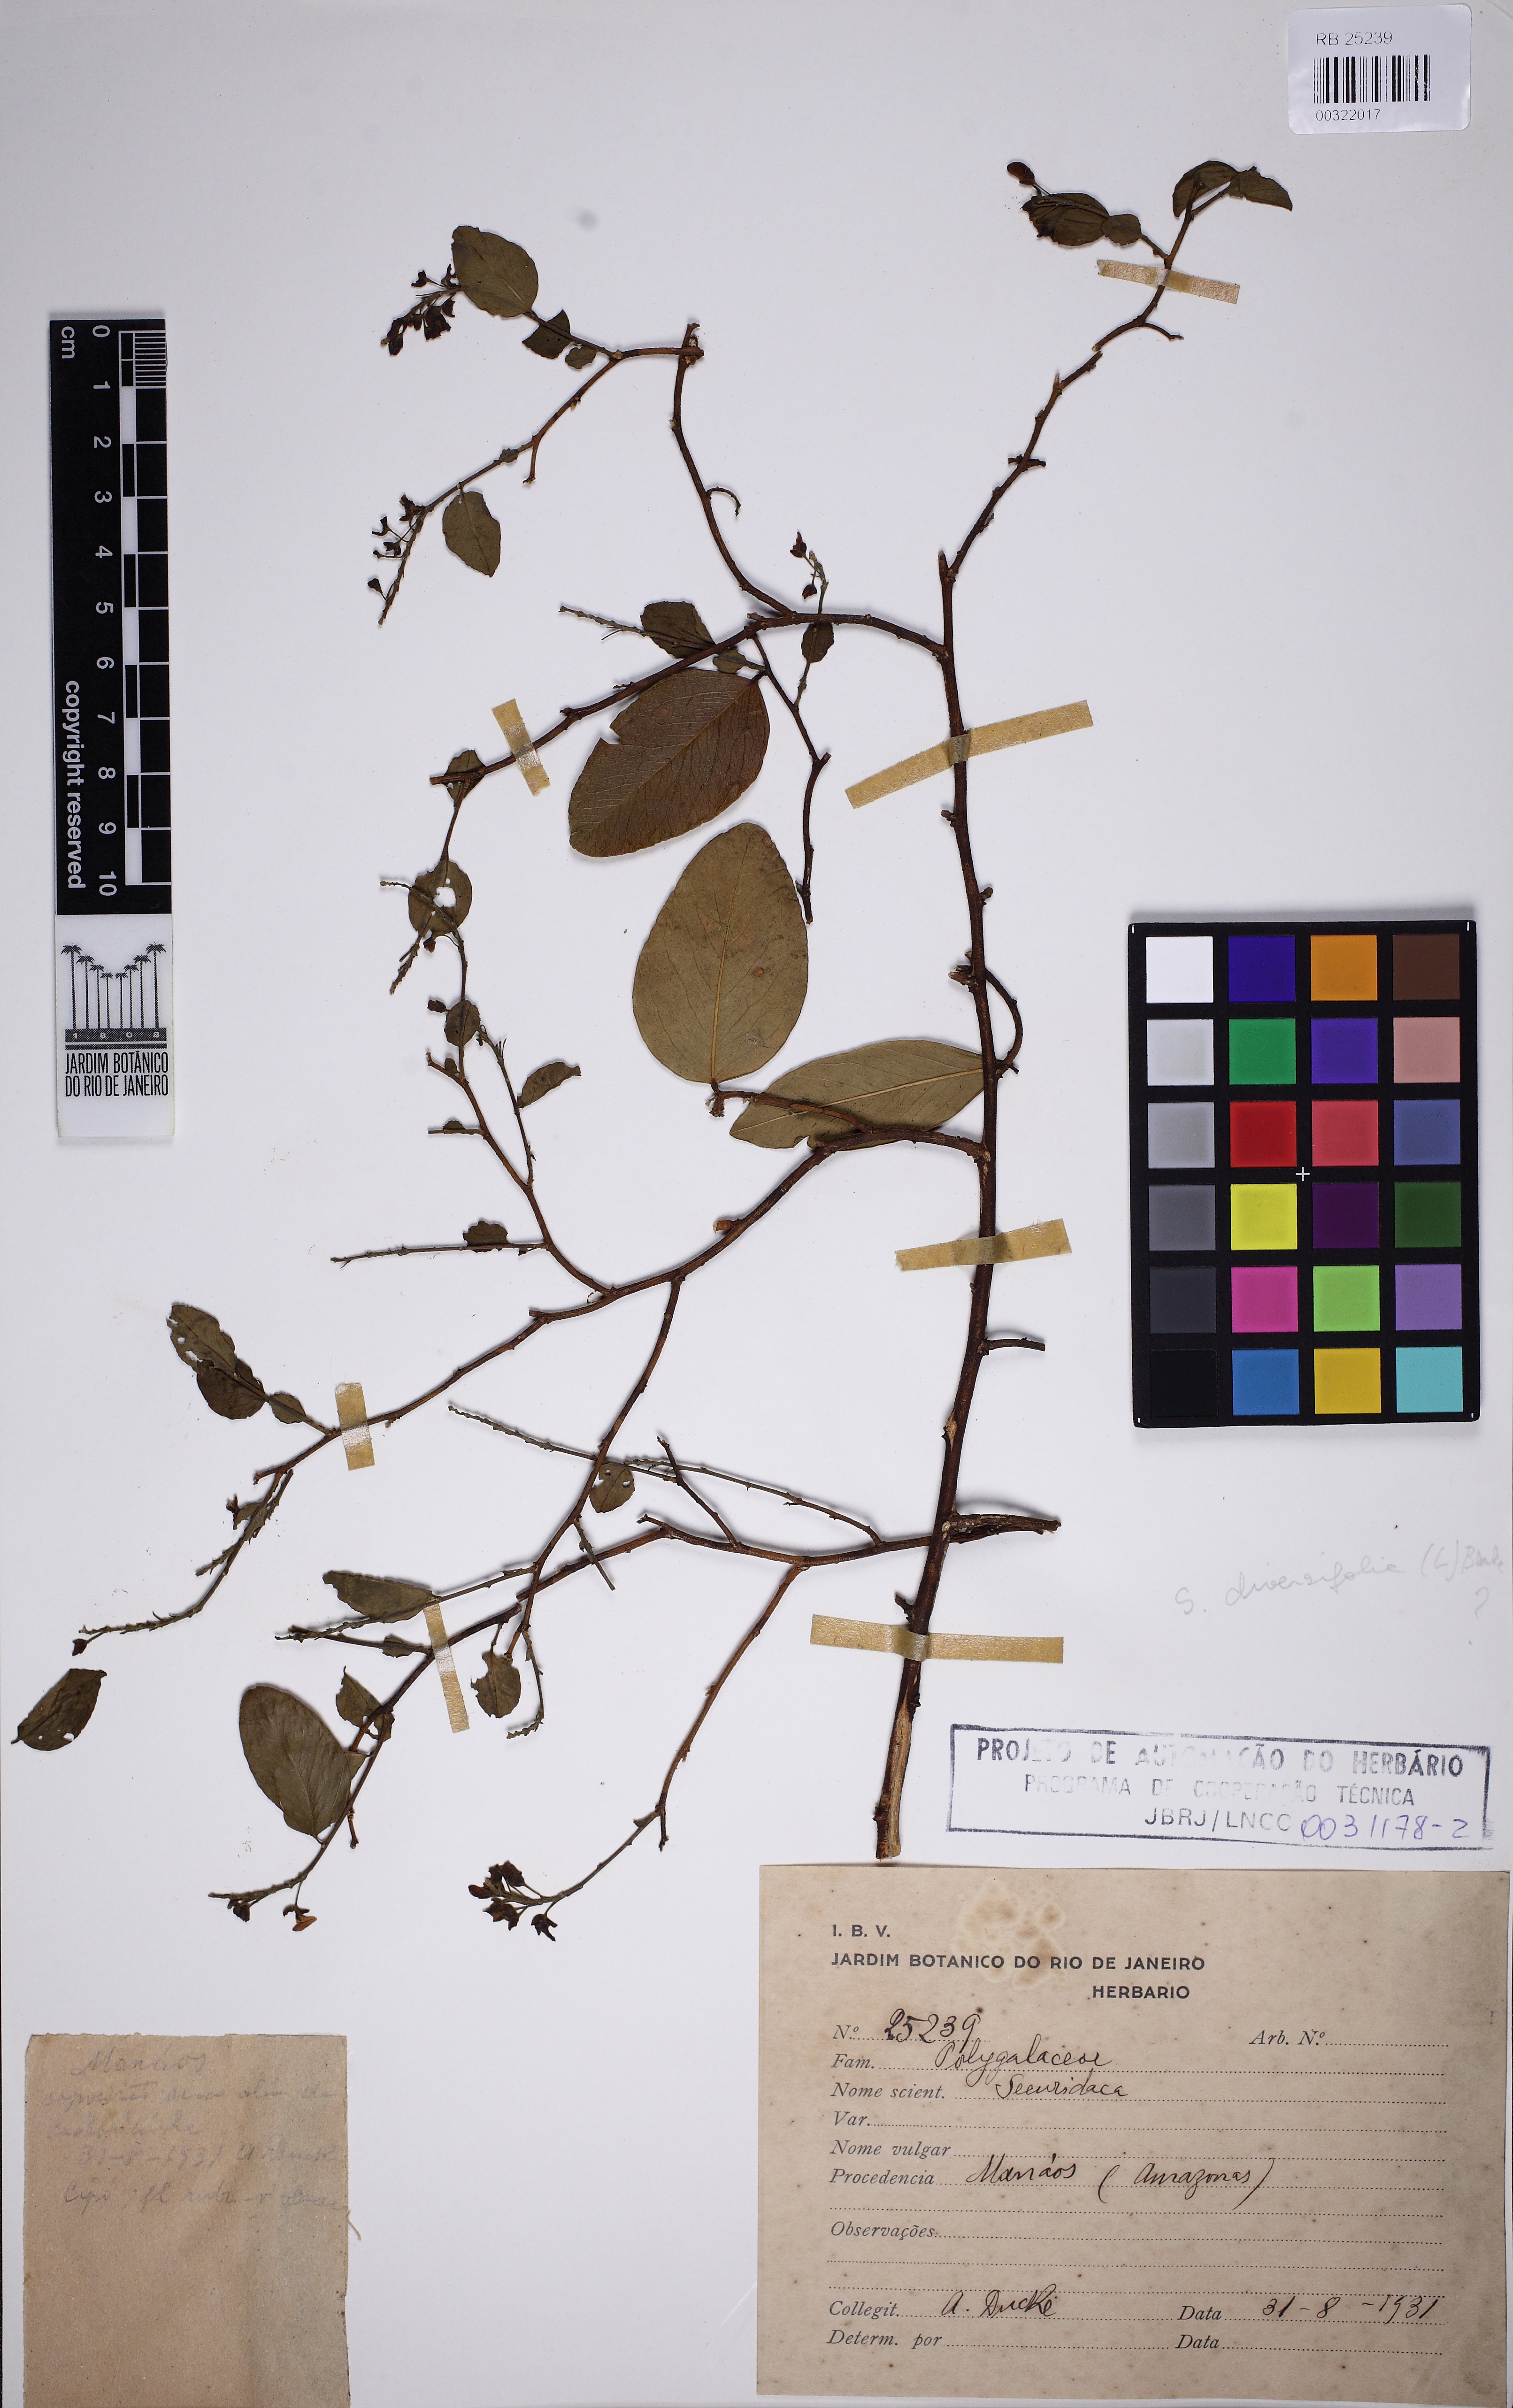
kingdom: Plantae
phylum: Tracheophyta
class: Magnoliopsida
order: Fabales
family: Polygalaceae
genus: Securidaca
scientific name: Securidaca
